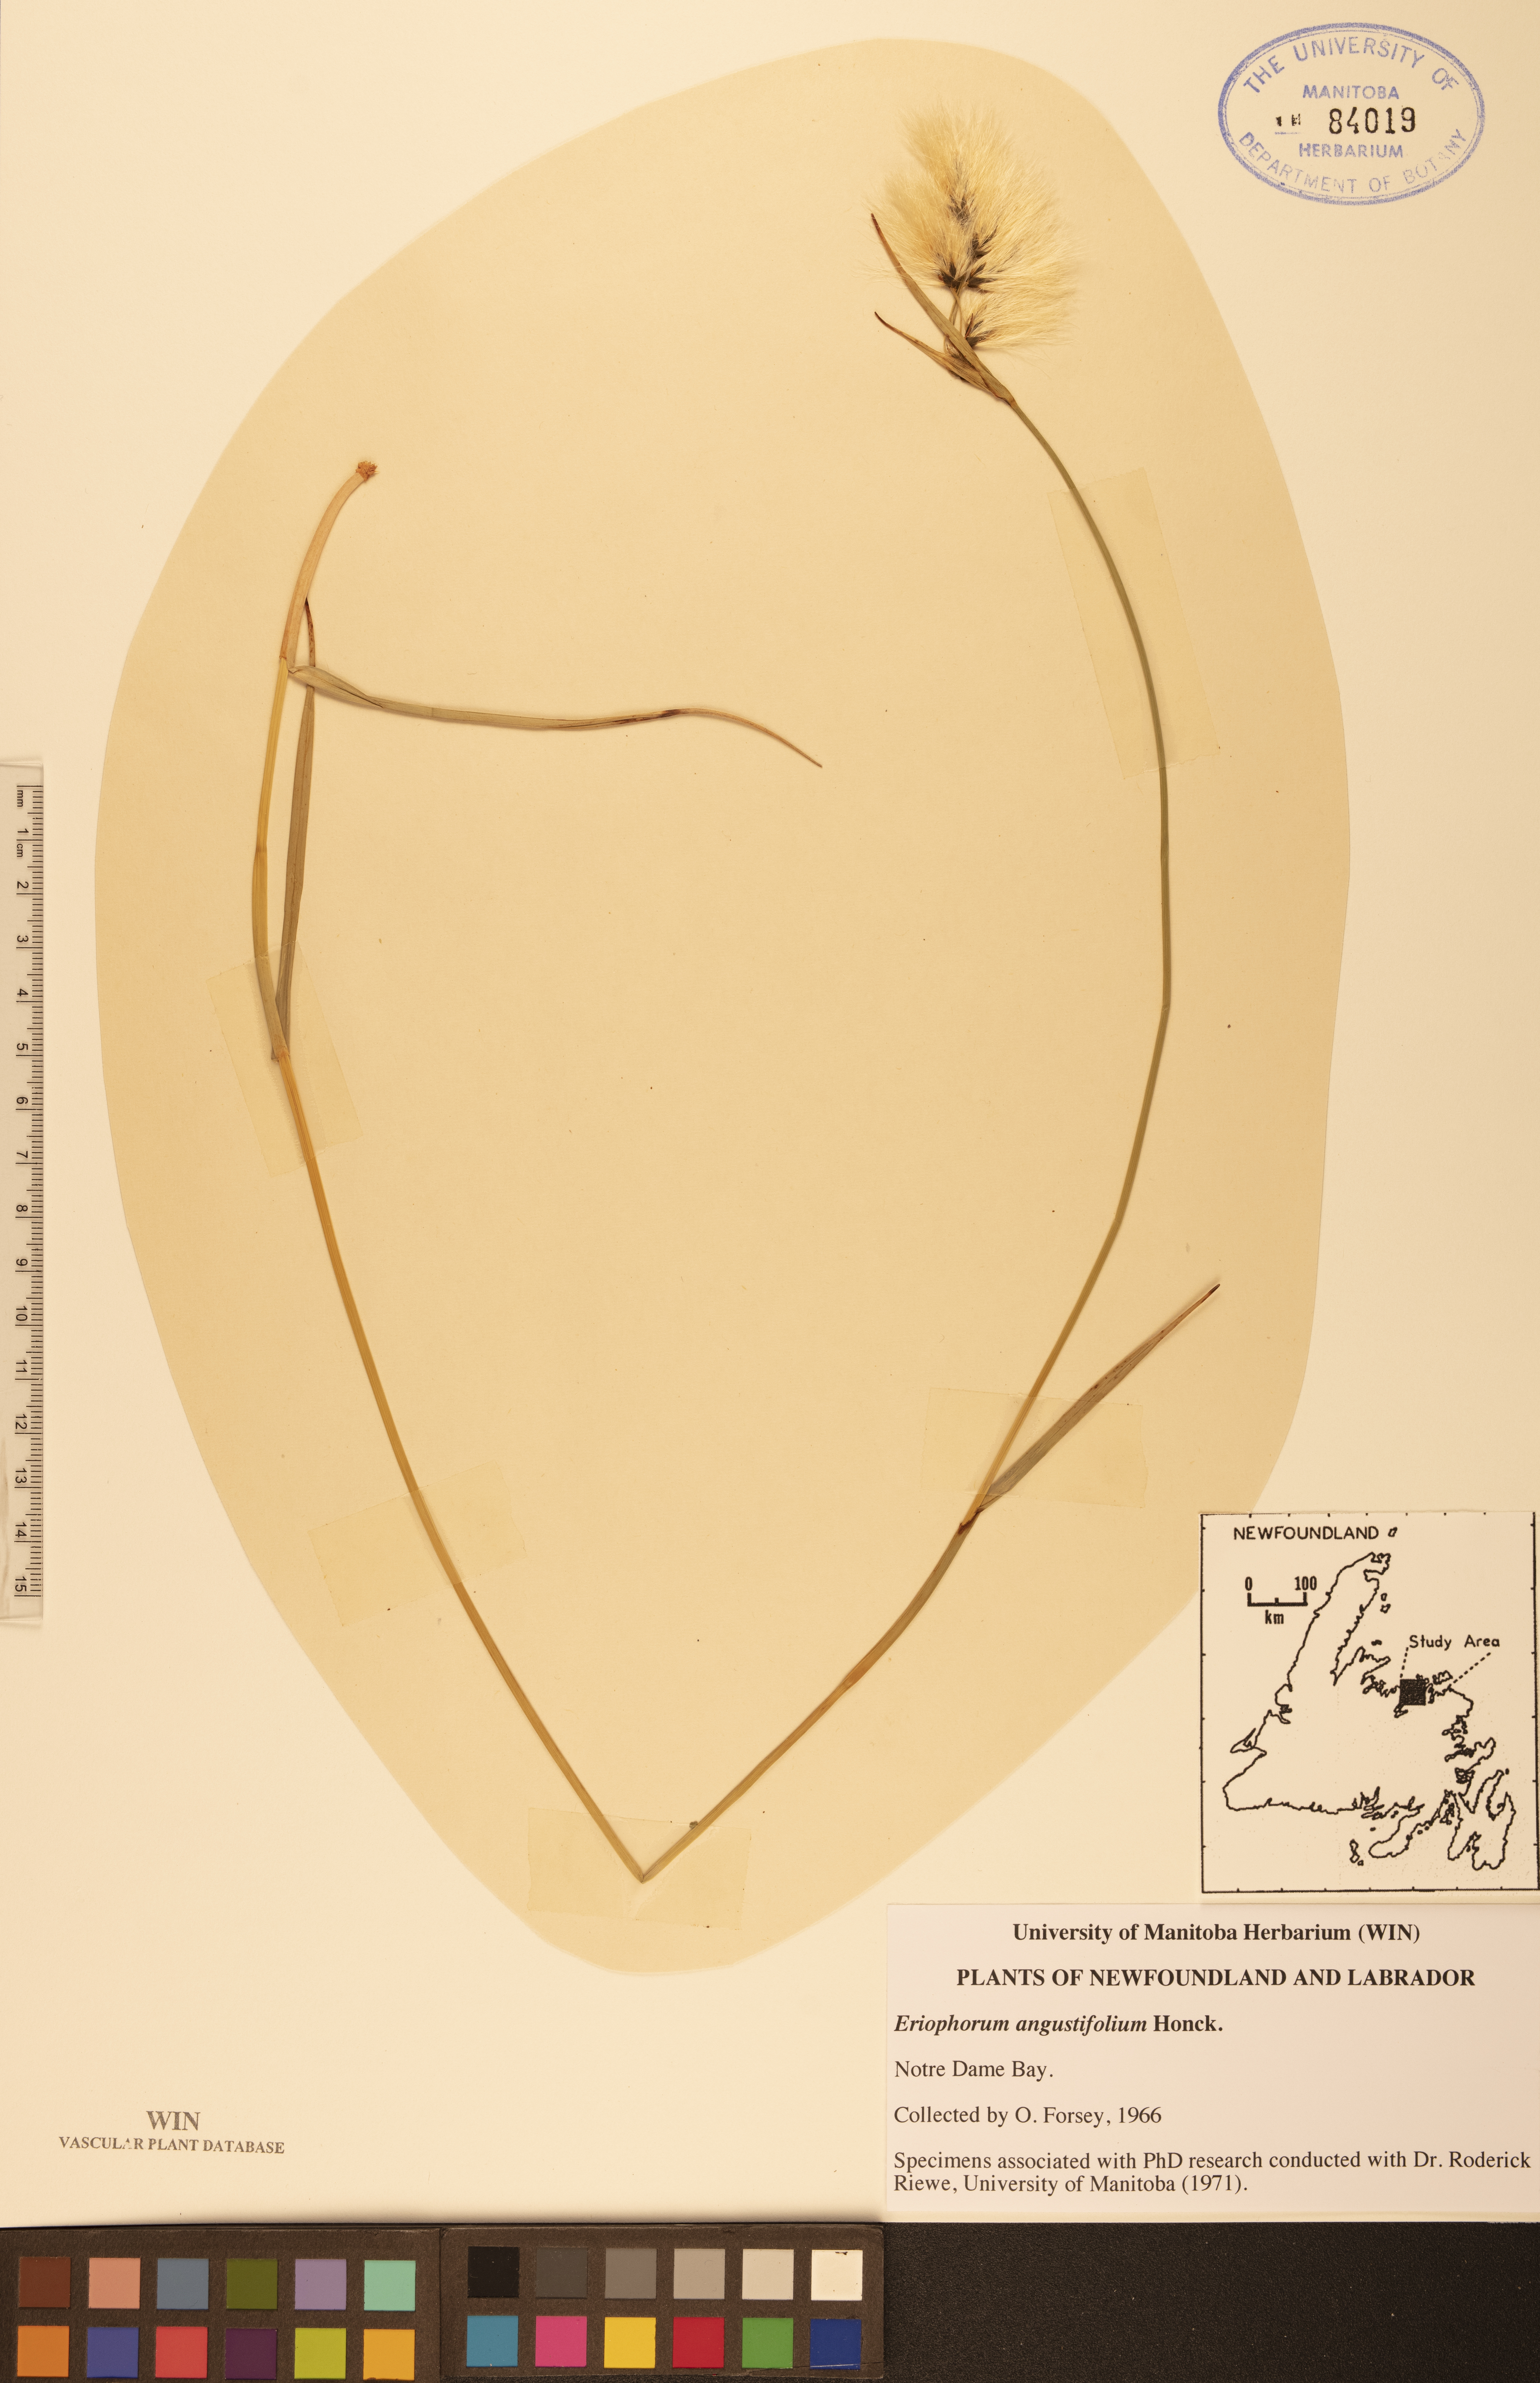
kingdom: Plantae
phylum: Tracheophyta
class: Liliopsida
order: Poales
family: Cyperaceae
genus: Eriophorum
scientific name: Eriophorum angustifolium
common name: Common cottongrass
